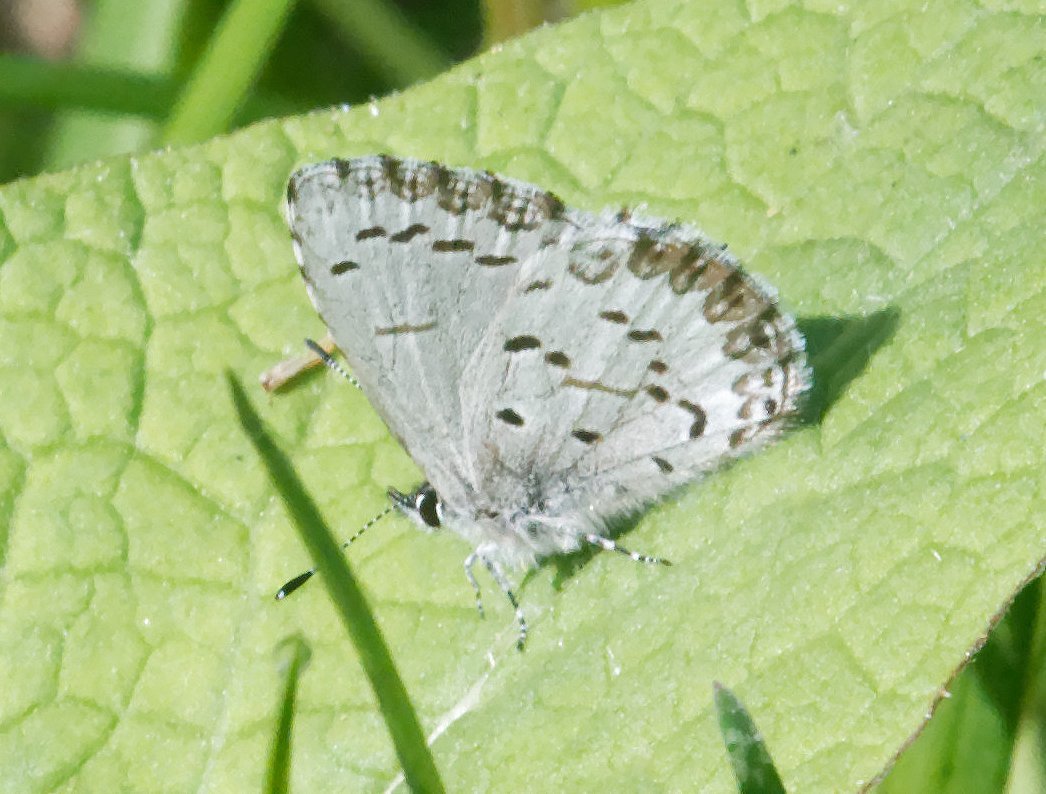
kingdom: Animalia
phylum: Arthropoda
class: Insecta
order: Lepidoptera
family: Lycaenidae
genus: Celastrina
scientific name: Celastrina lucia
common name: Northern Spring Azure
